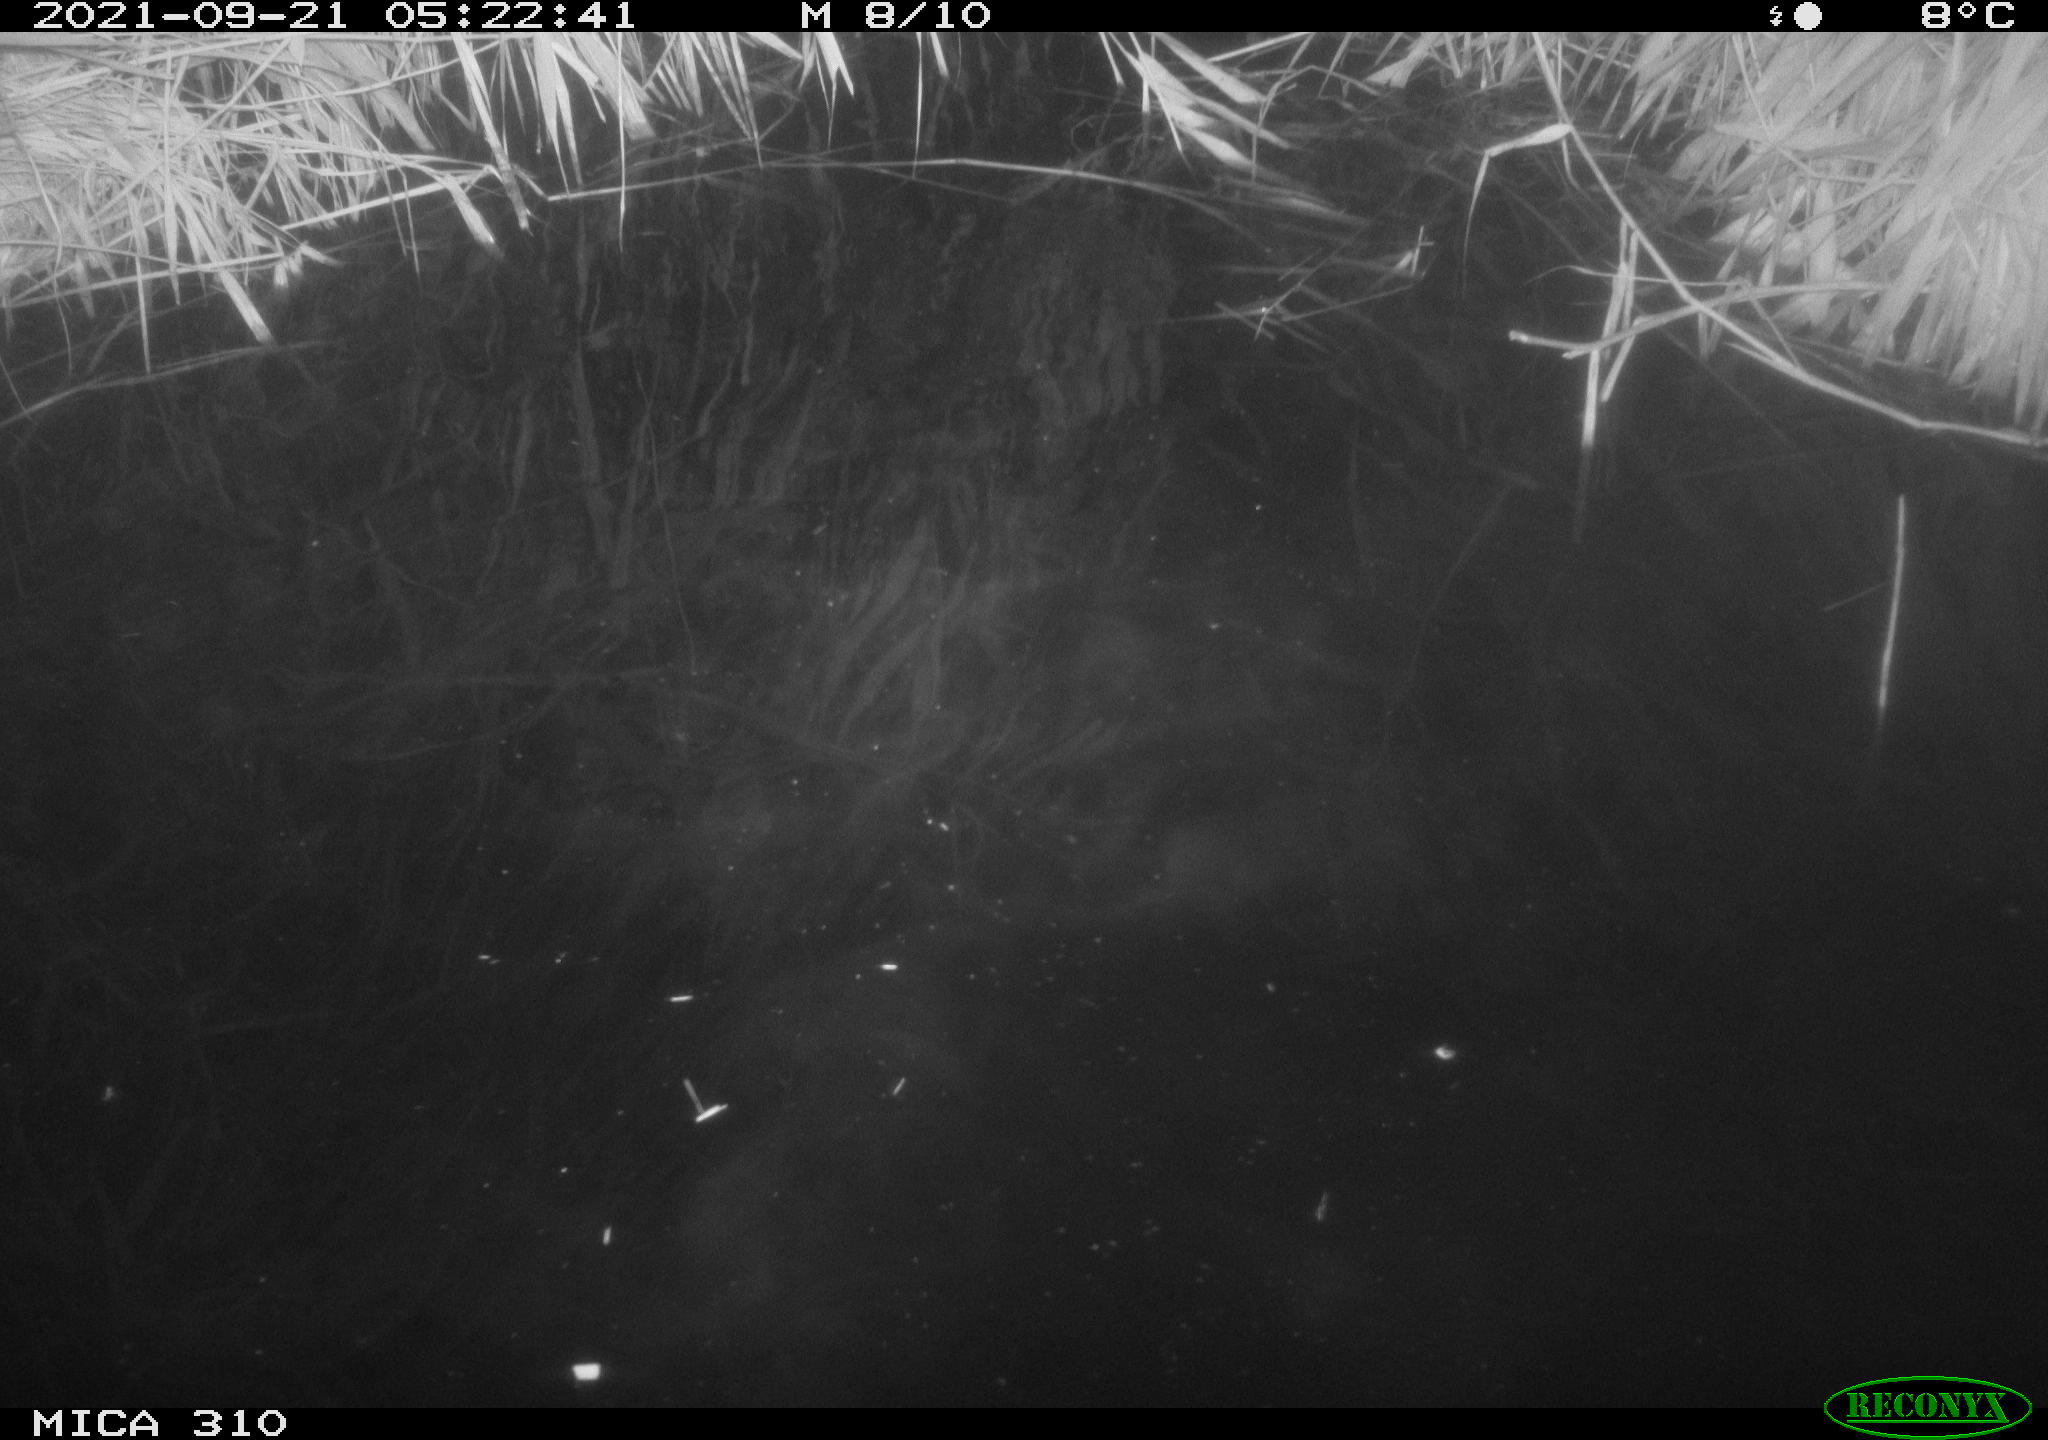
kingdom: Animalia
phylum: Chordata
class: Aves
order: Anseriformes
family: Anatidae
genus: Mareca
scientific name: Mareca strepera
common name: Gadwall
